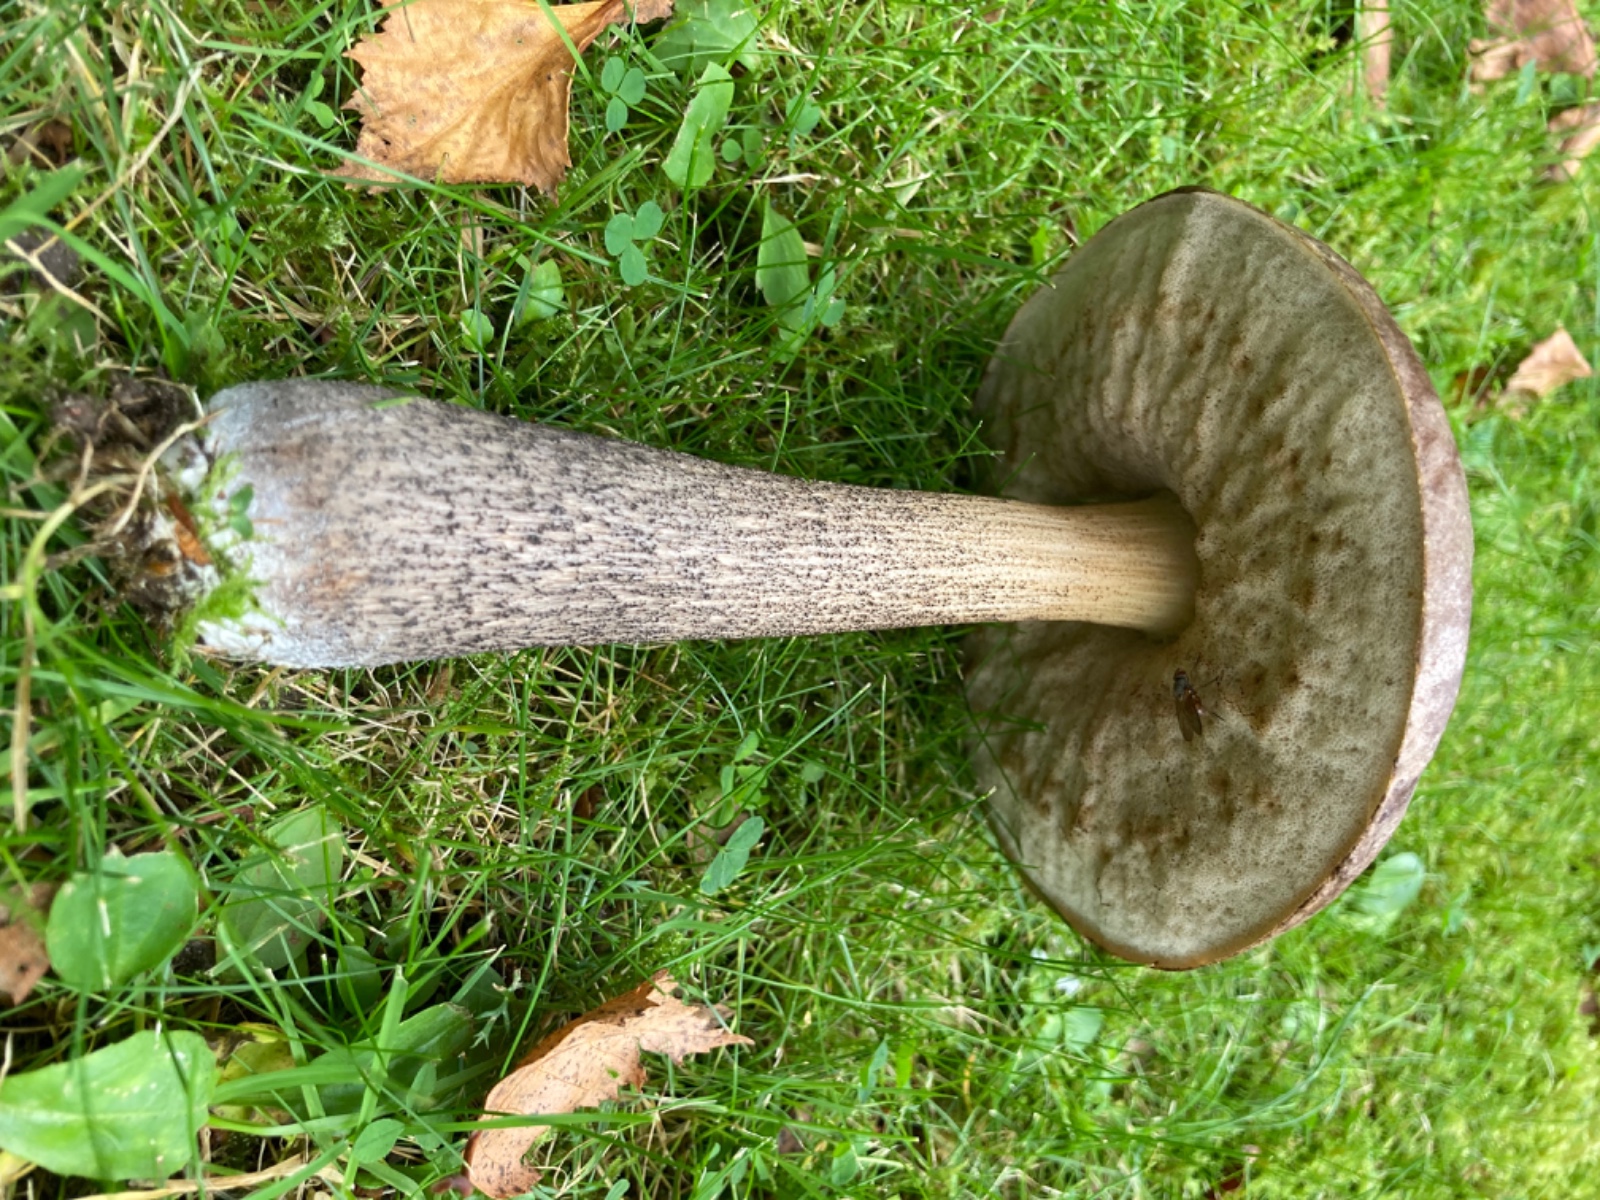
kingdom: Fungi
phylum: Basidiomycota
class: Agaricomycetes
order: Boletales
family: Boletaceae
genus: Leccinum
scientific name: Leccinum scabrum
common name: brun skælrørhat
